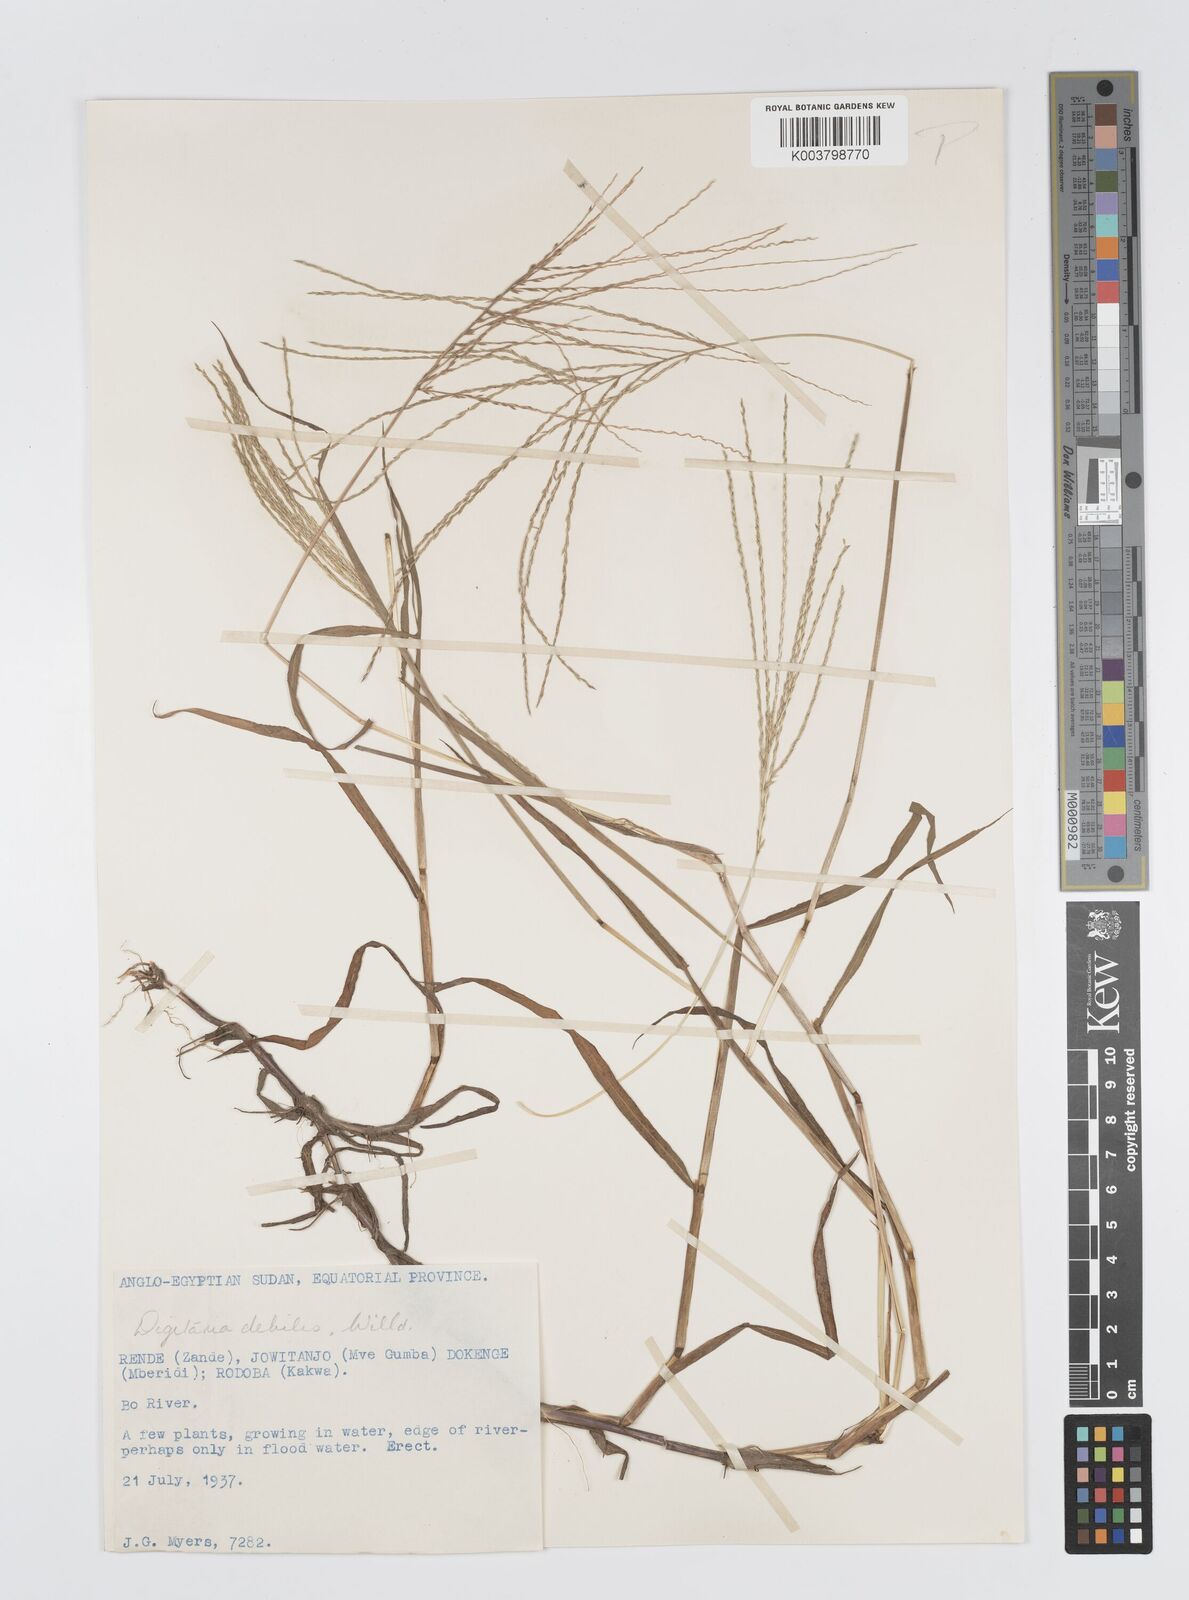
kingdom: Plantae
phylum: Tracheophyta
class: Liliopsida
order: Poales
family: Poaceae
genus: Digitaria
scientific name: Digitaria debilis
